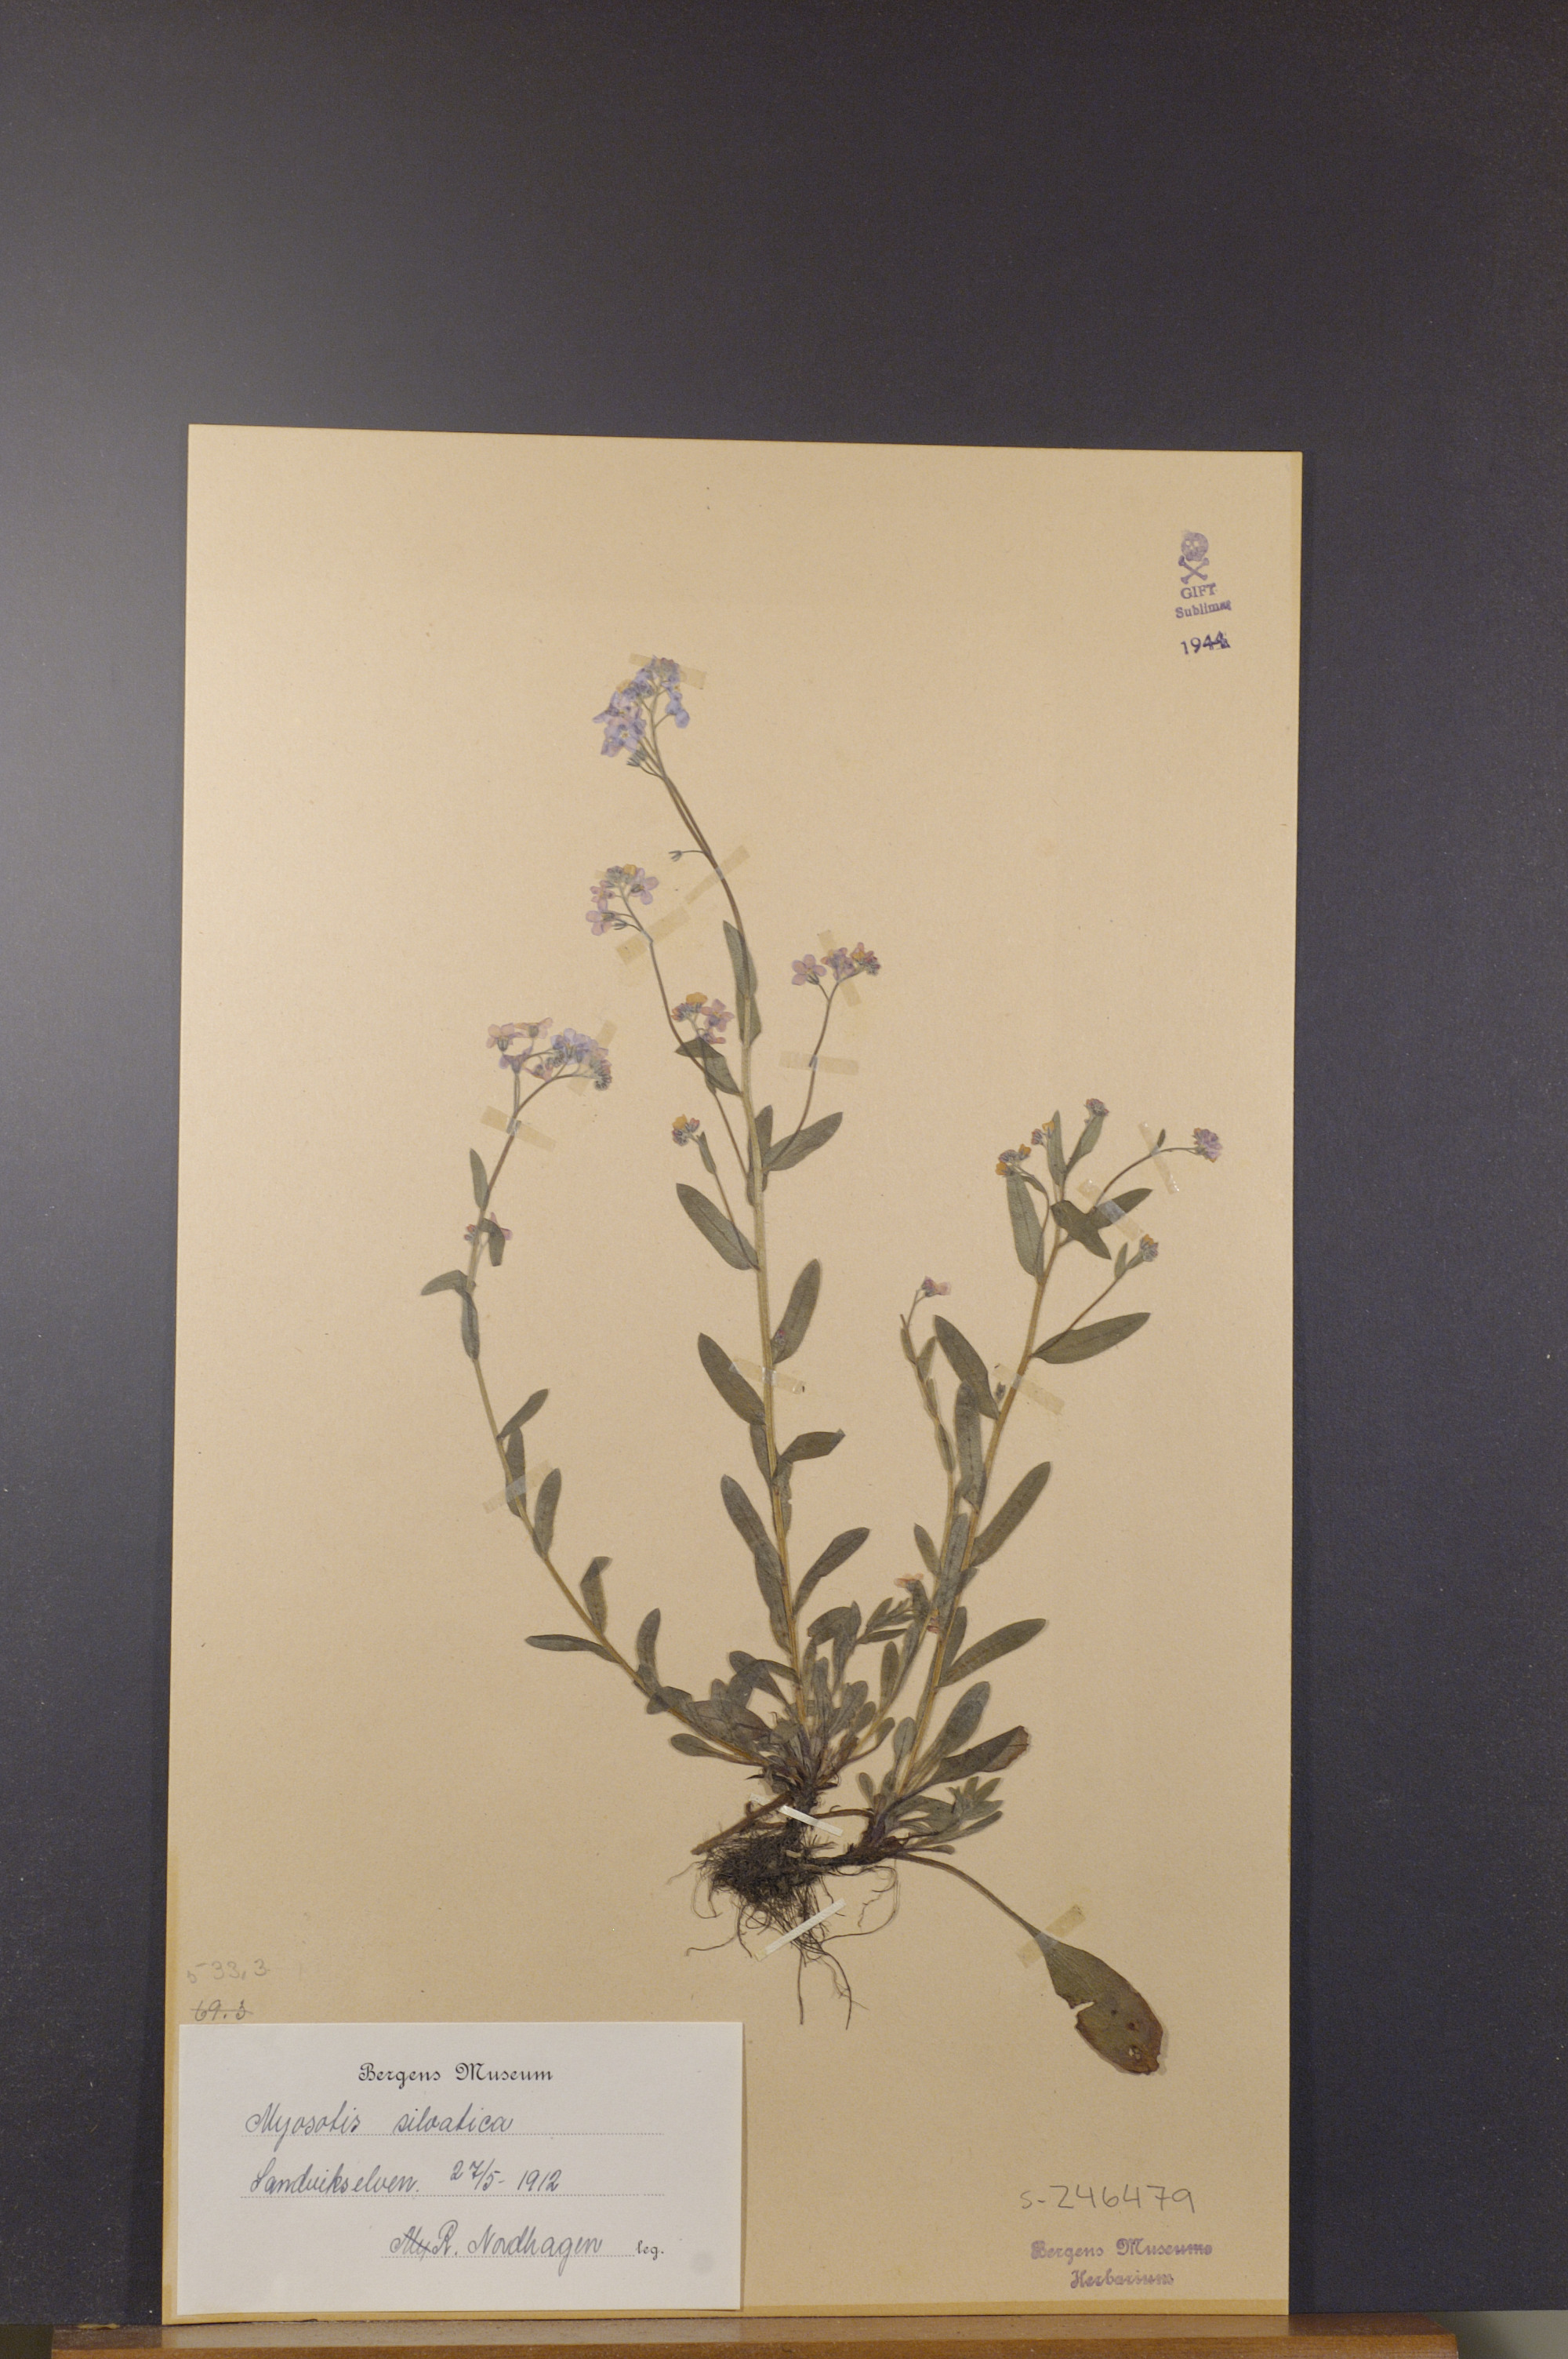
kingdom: Plantae
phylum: Tracheophyta
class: Magnoliopsida
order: Boraginales
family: Boraginaceae
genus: Myosotis
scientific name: Myosotis sylvatica
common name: Wood forget-me-not
